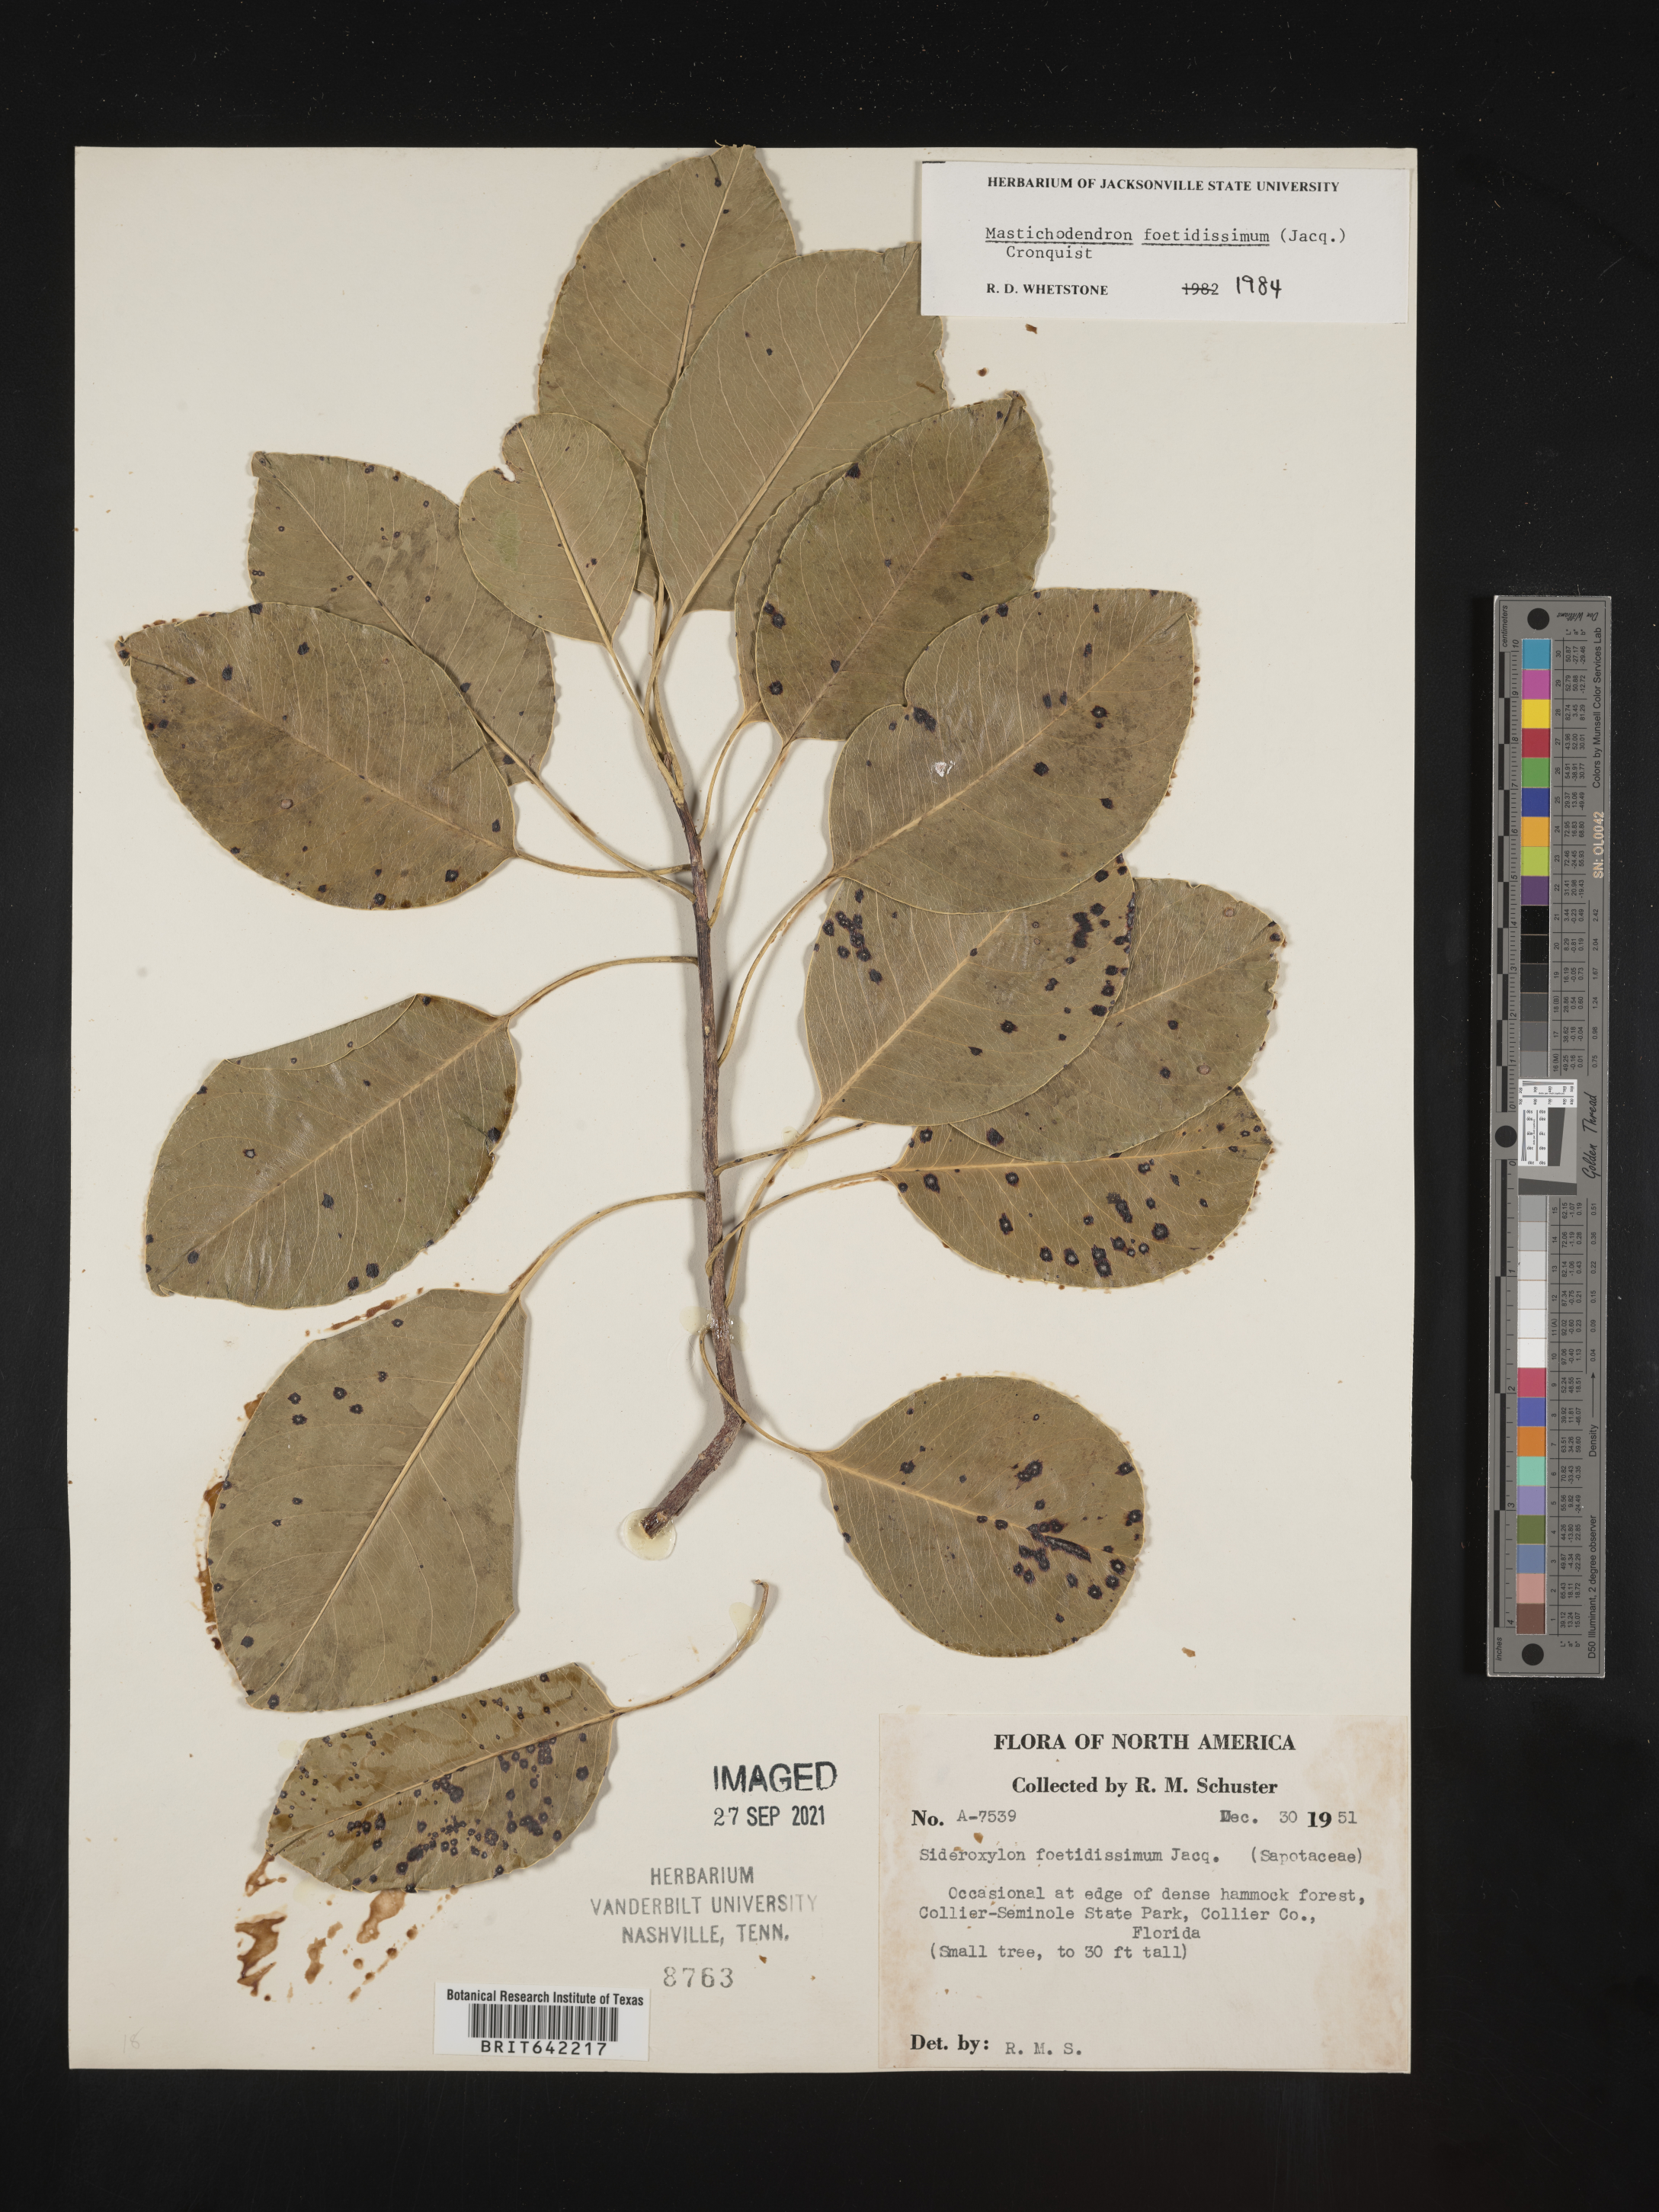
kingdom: Plantae
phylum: Tracheophyta
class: Magnoliopsida
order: Ericales
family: Sapotaceae
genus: Sideroxylon
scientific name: Sideroxylon foetidissimum
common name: Barbados-mastic
